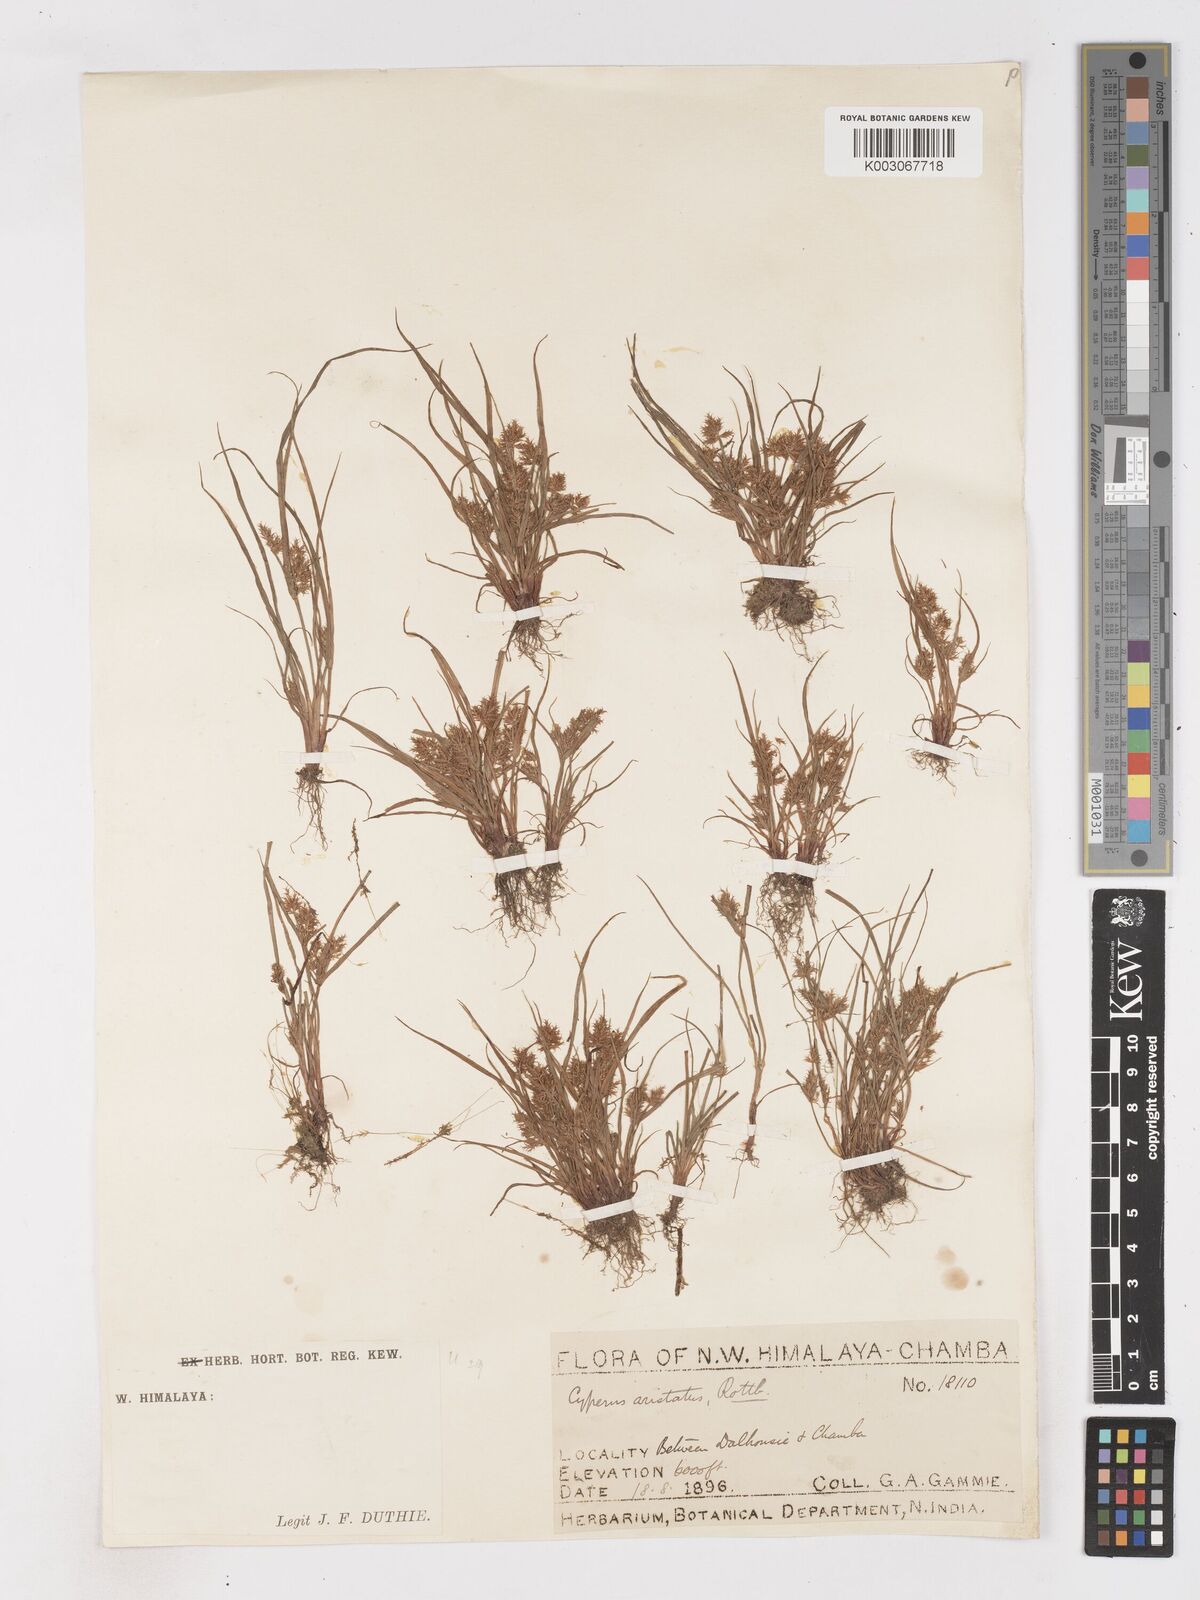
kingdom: Plantae
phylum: Tracheophyta
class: Liliopsida
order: Poales
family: Cyperaceae
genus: Cyperus
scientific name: Cyperus squarrosus
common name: Awned cyperus
